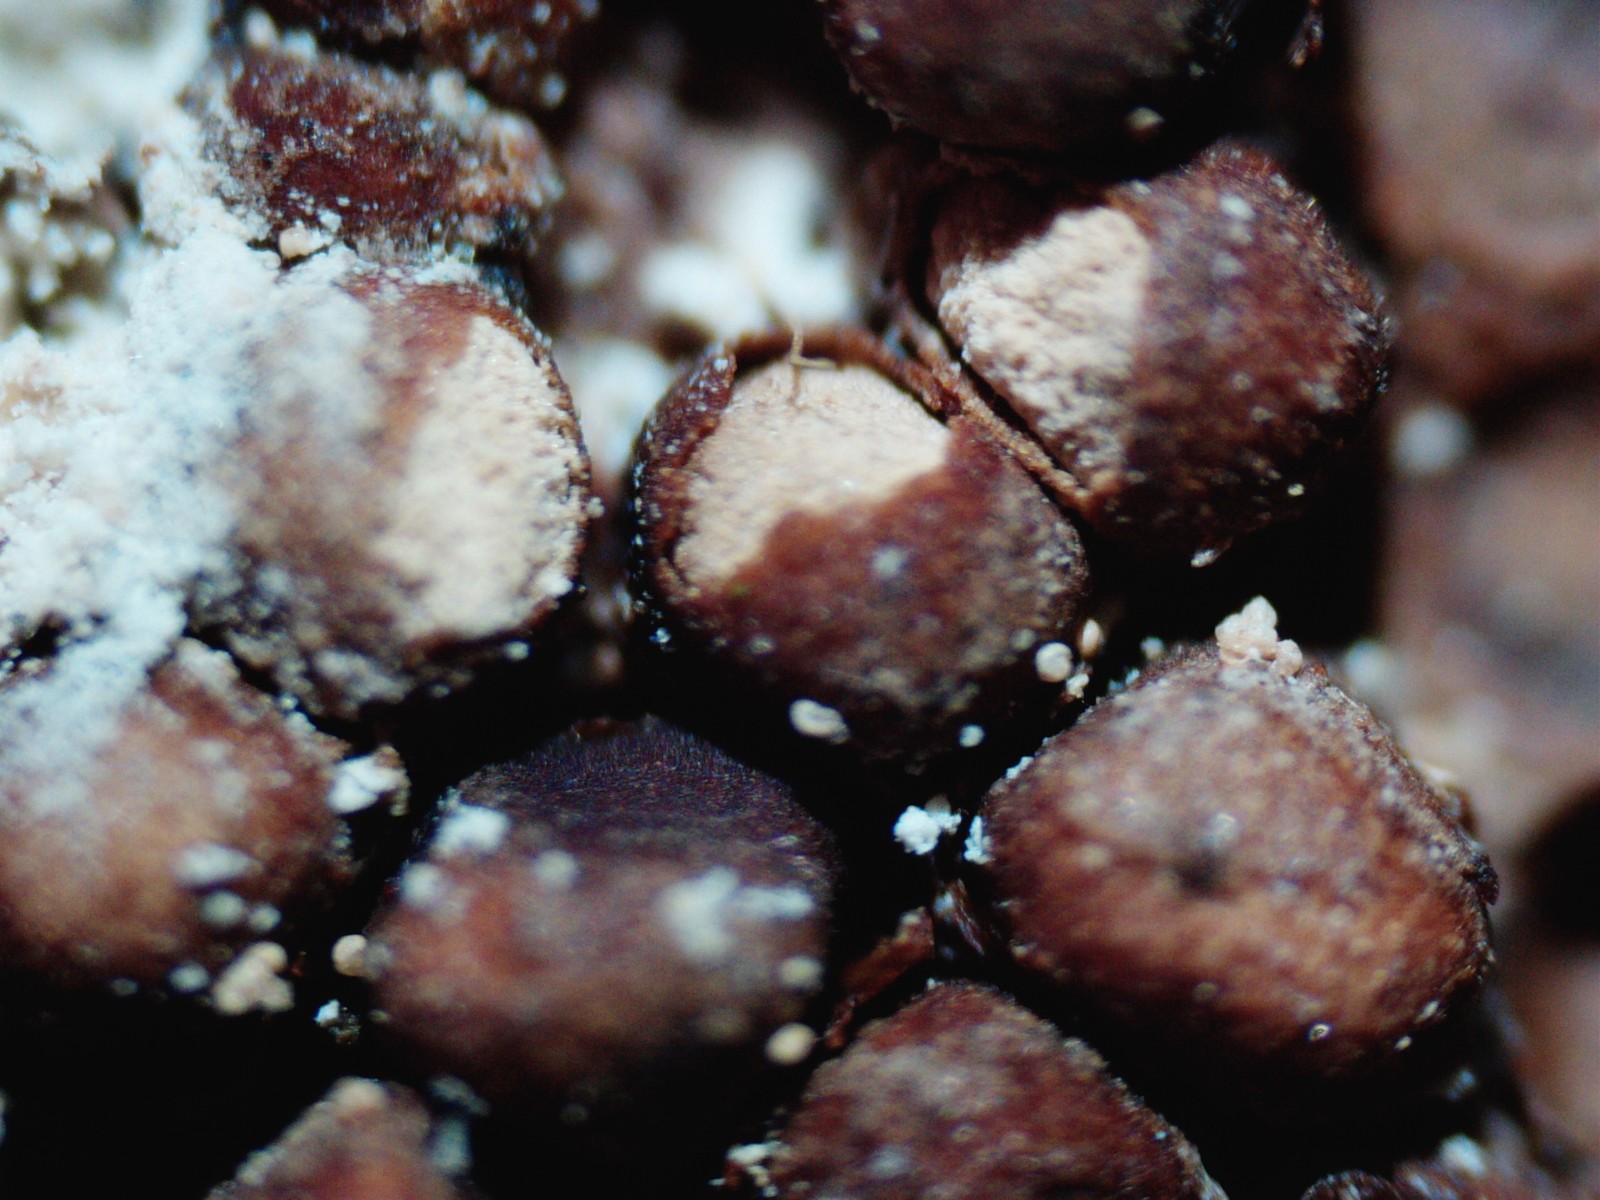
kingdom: Fungi
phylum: Basidiomycota
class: Pucciniomycetes
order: Pucciniales
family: Pucciniastraceae
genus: Thekopsora
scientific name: Thekopsora areolata
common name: grankogle-nålerust
